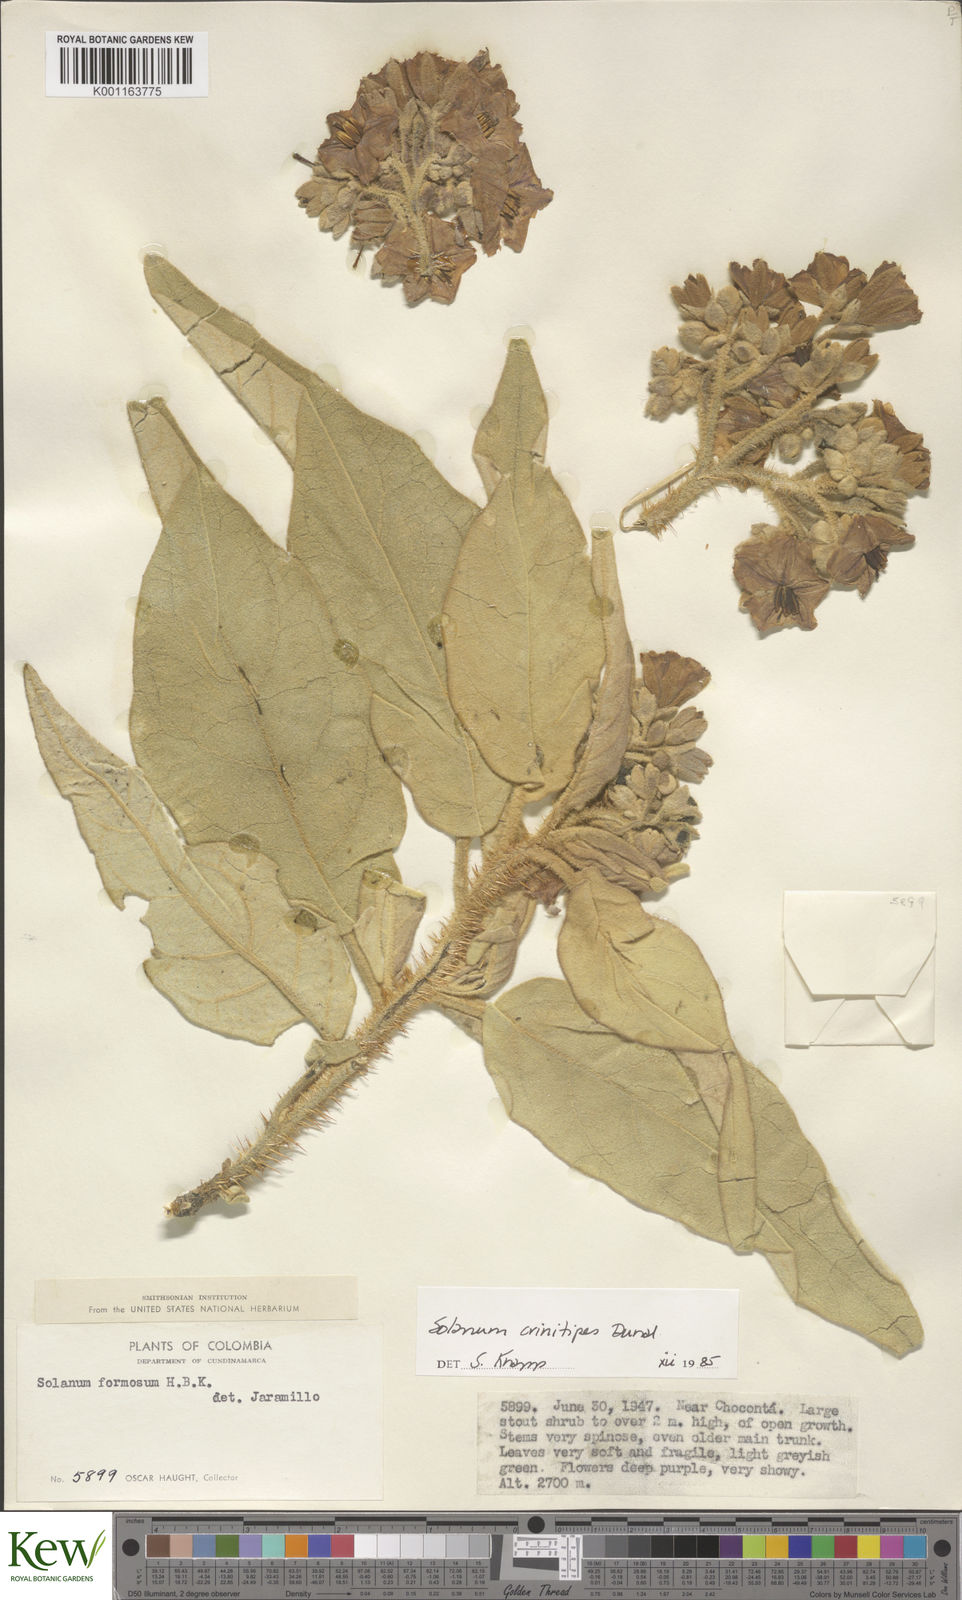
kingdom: Plantae
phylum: Tracheophyta
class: Magnoliopsida
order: Solanales
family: Solanaceae
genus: Solanum
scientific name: Solanum crinitipes
